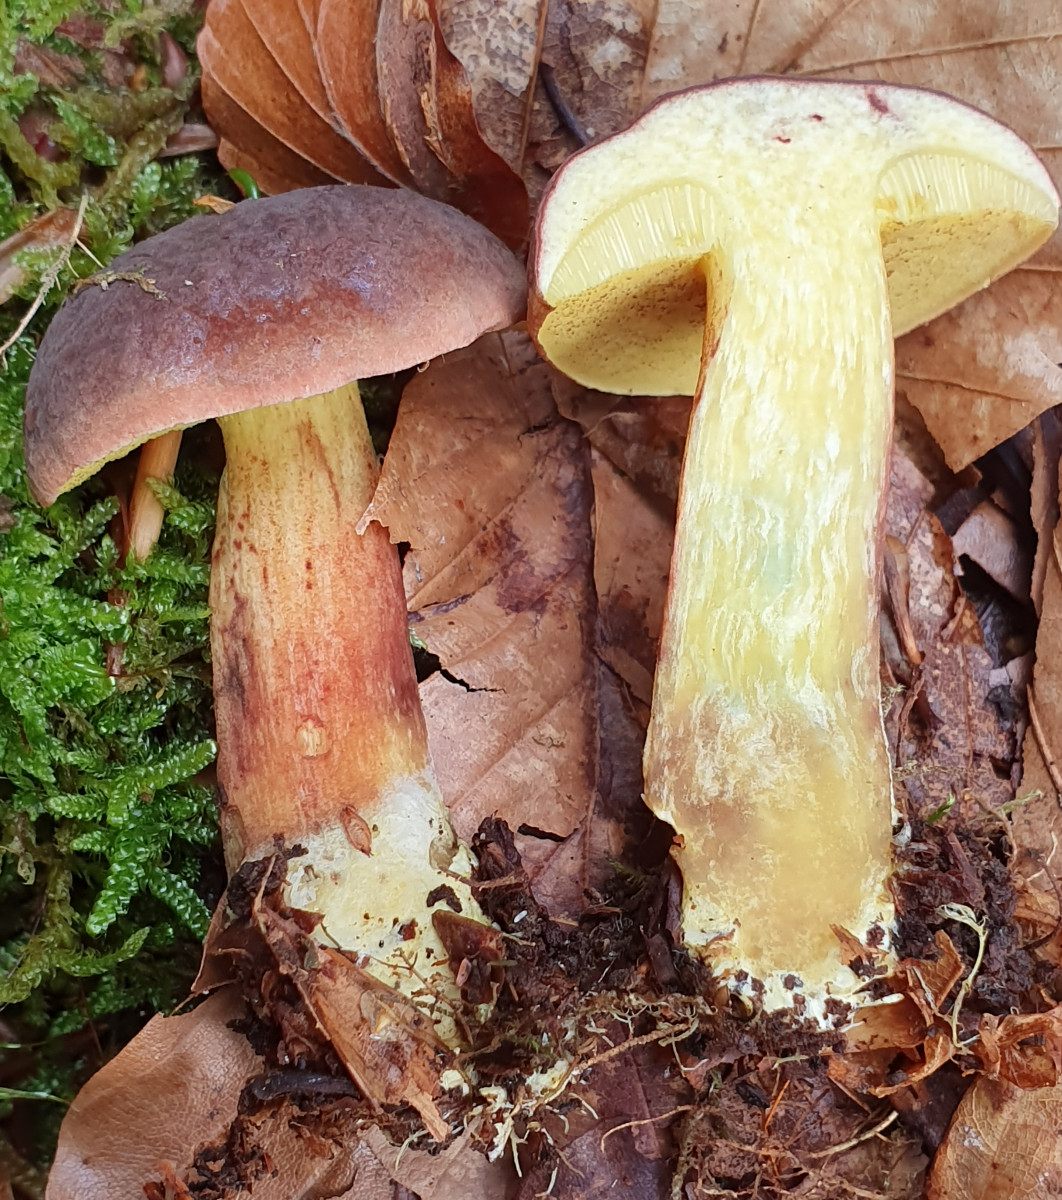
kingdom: Fungi
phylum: Basidiomycota
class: Agaricomycetes
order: Boletales
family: Boletaceae
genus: Xerocomellus
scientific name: Xerocomellus pruinatus
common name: dugget rørhat
